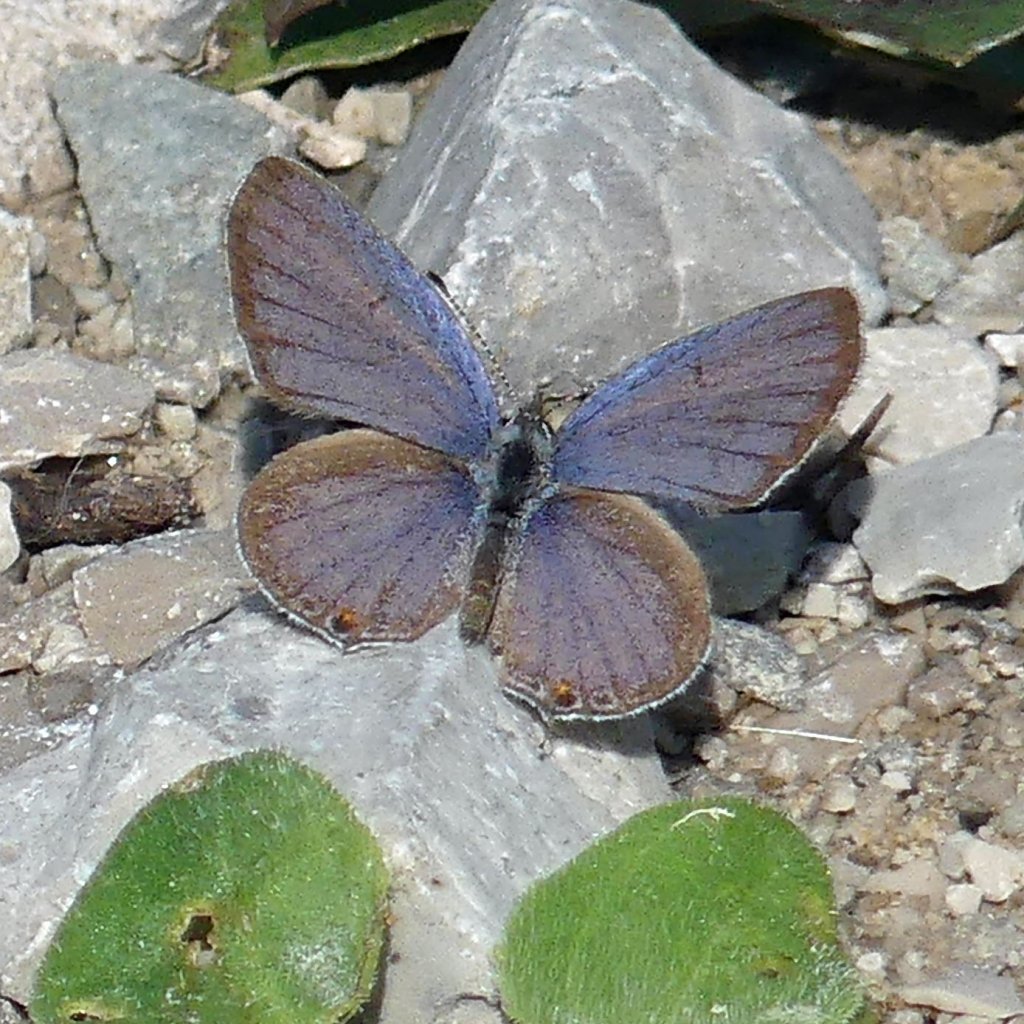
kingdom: Animalia
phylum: Arthropoda
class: Insecta
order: Lepidoptera
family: Lycaenidae
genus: Elkalyce
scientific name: Elkalyce comyntas
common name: Eastern Tailed-Blue
